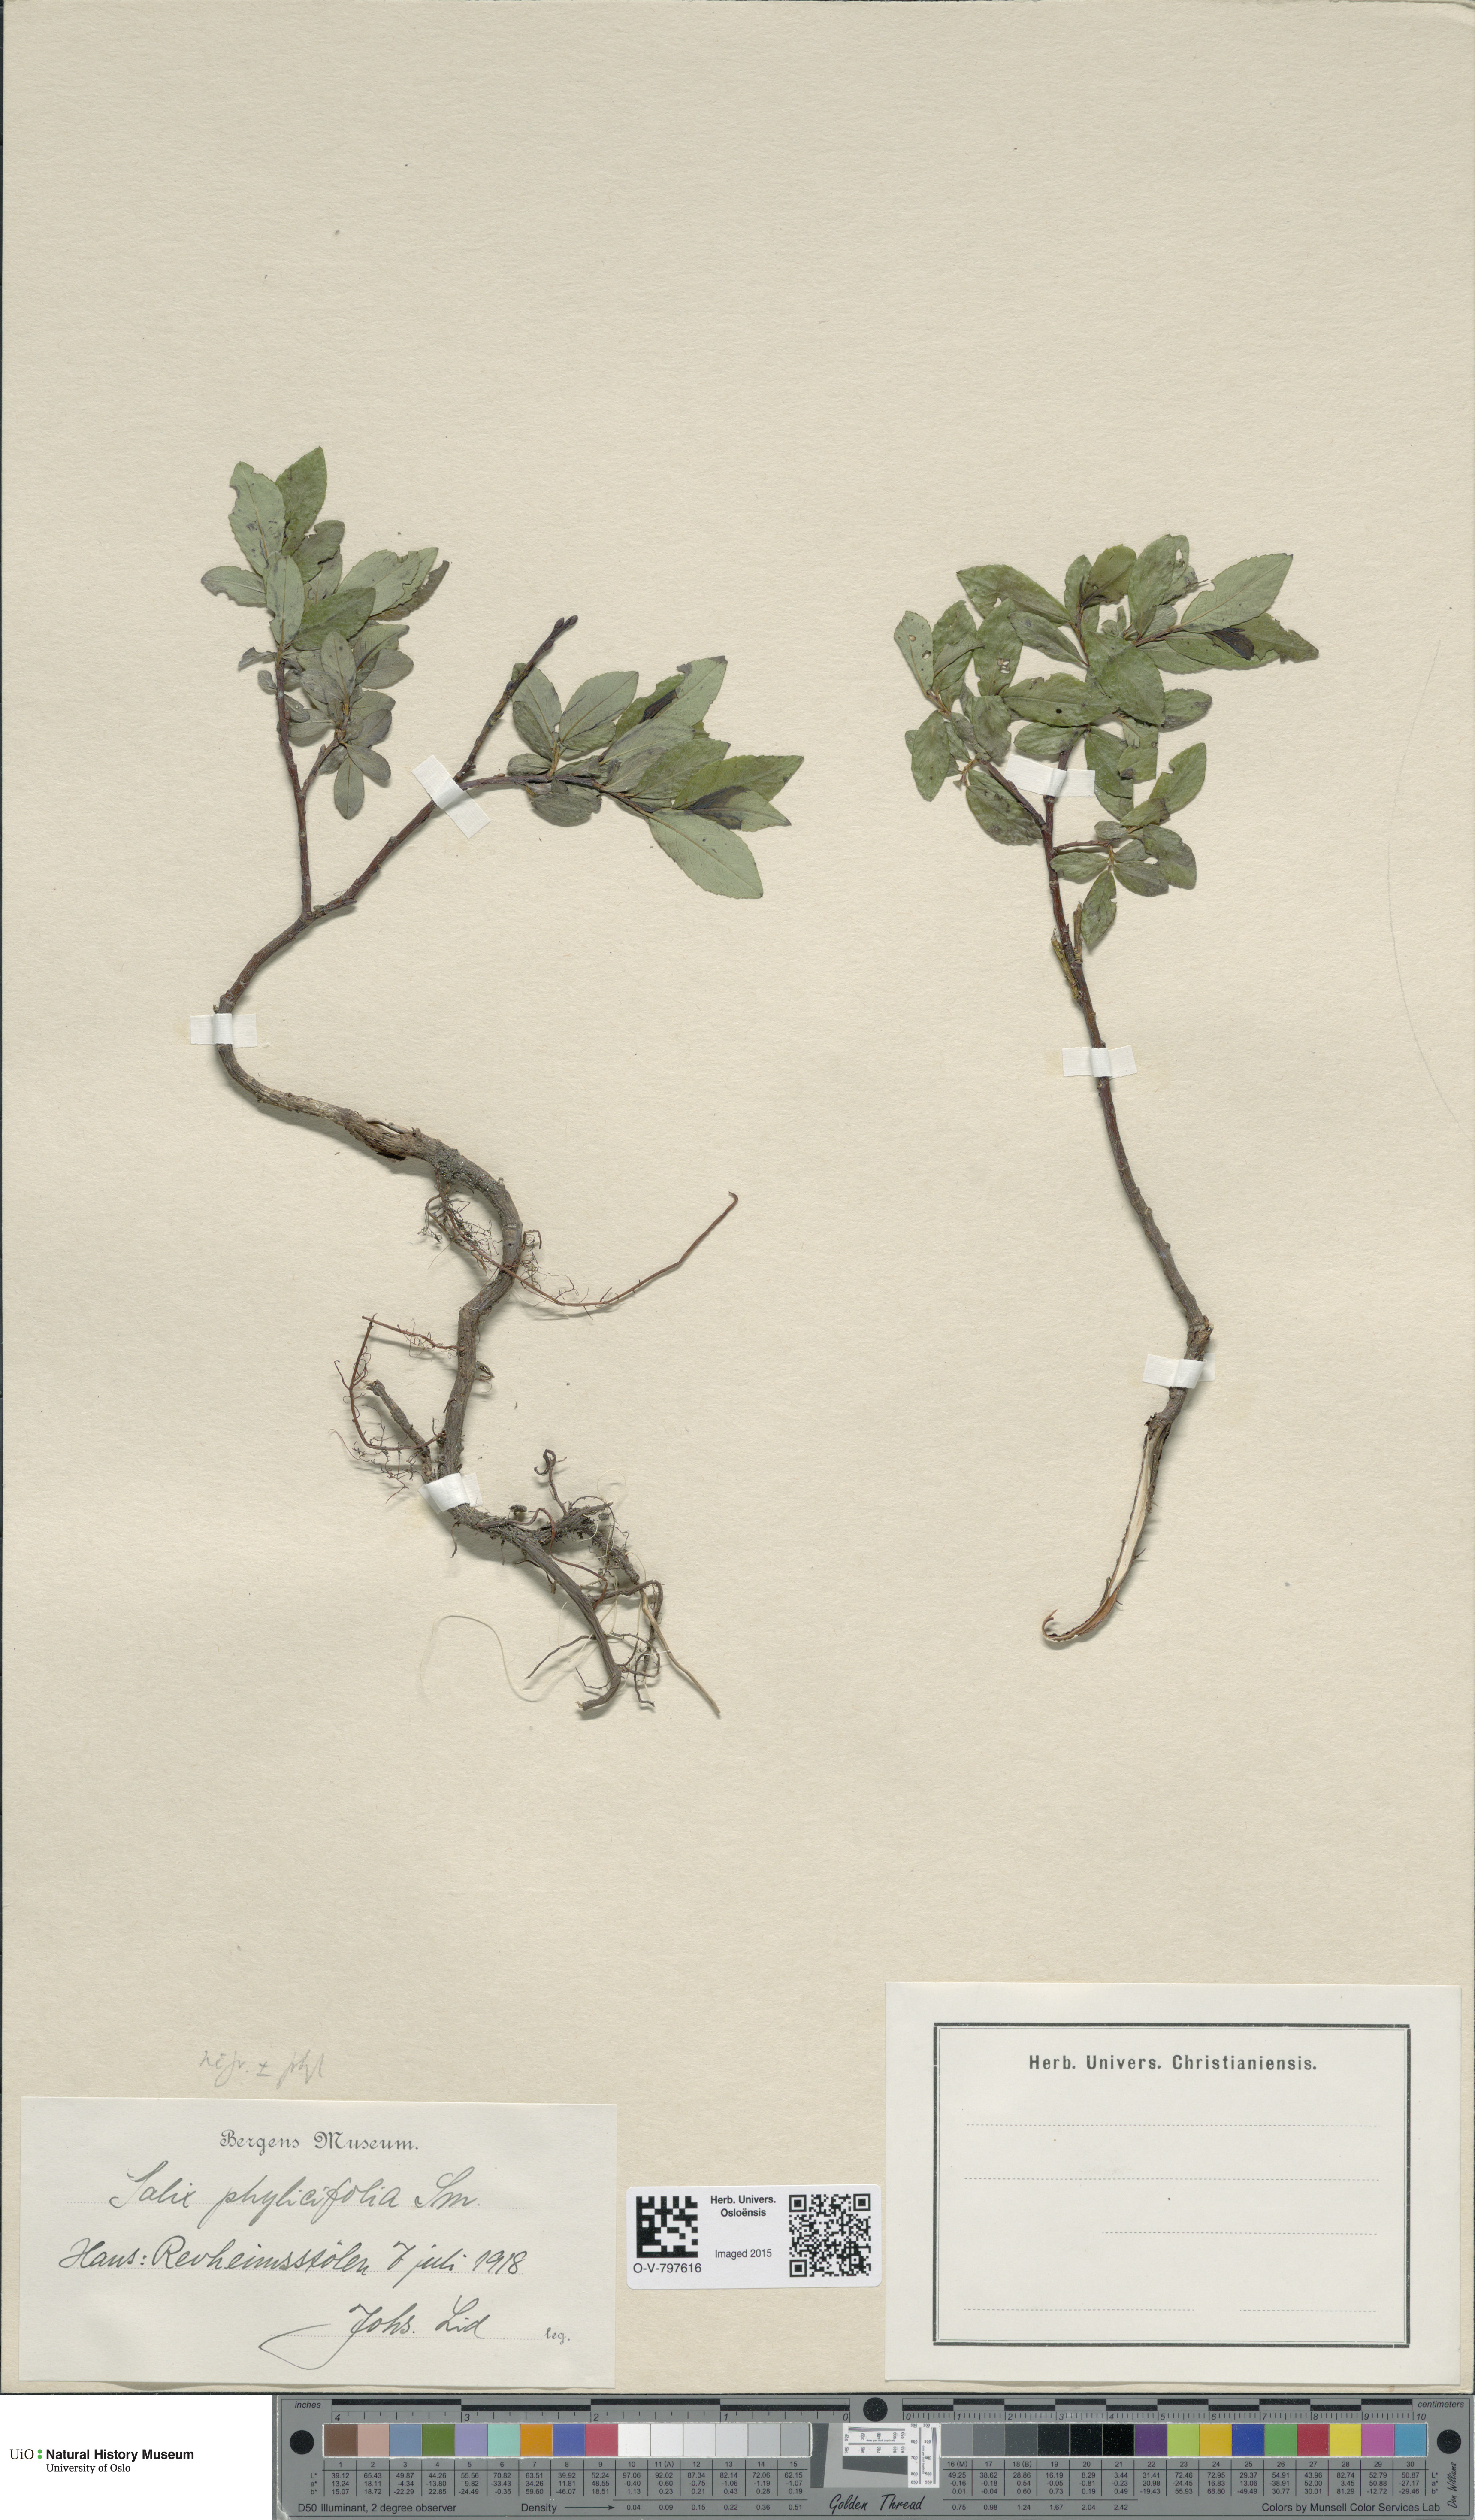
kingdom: Plantae
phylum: Tracheophyta
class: Magnoliopsida
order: Malpighiales
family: Salicaceae
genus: Salix
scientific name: Salix
